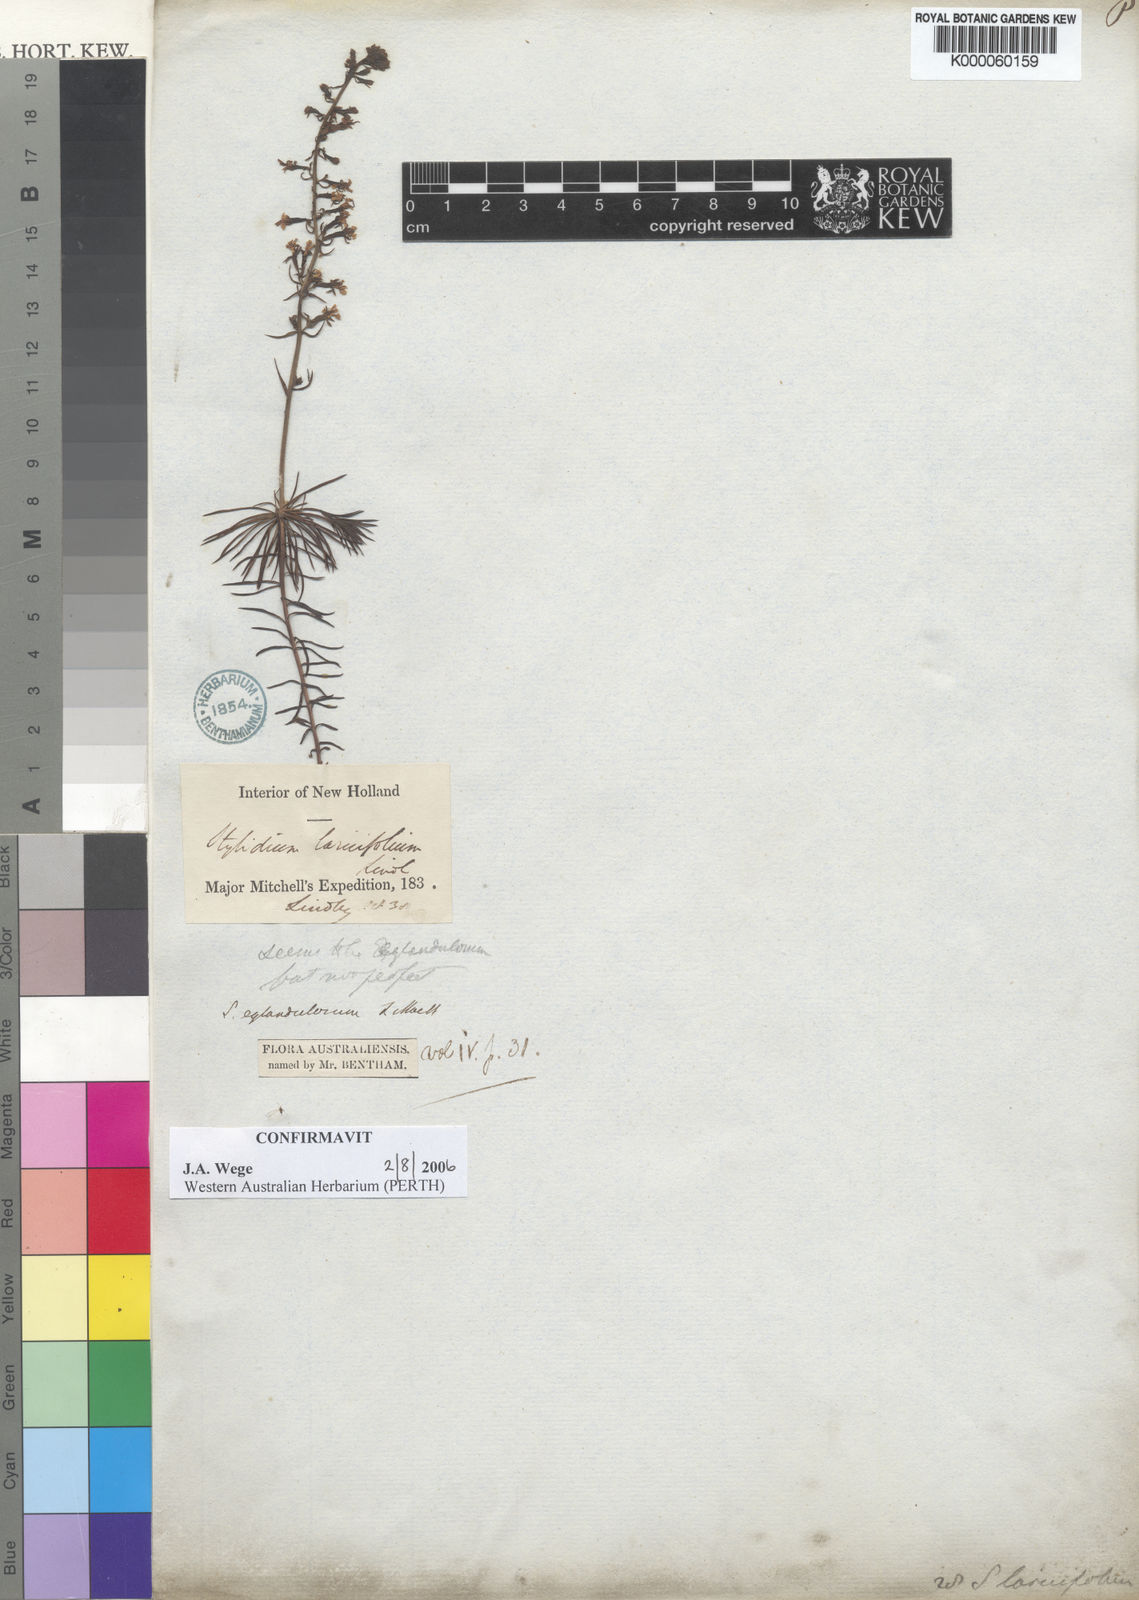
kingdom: Plantae
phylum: Tracheophyta
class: Magnoliopsida
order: Asterales
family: Stylidiaceae
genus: Stylidium
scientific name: Stylidium eglandulosum
